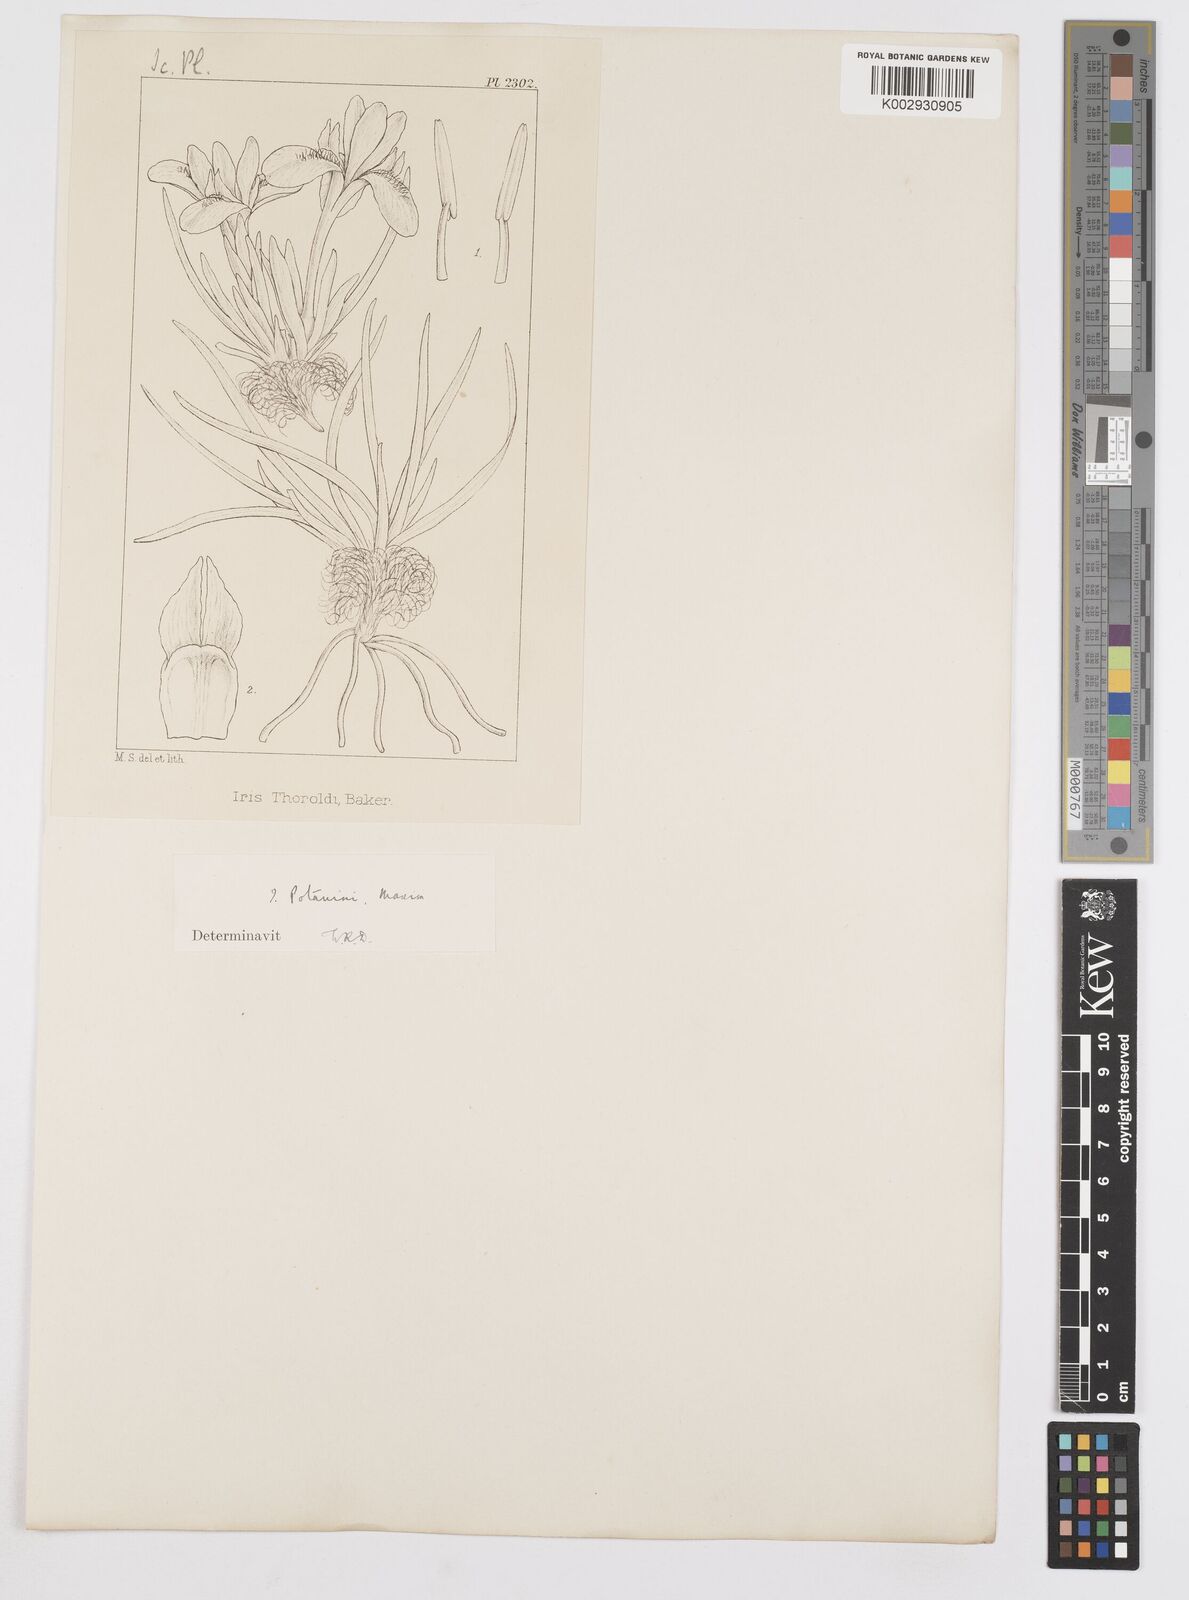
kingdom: Plantae
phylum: Tracheophyta
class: Liliopsida
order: Asparagales
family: Iridaceae
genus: Iris
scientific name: Iris potaninii
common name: Curl-sheath iris
